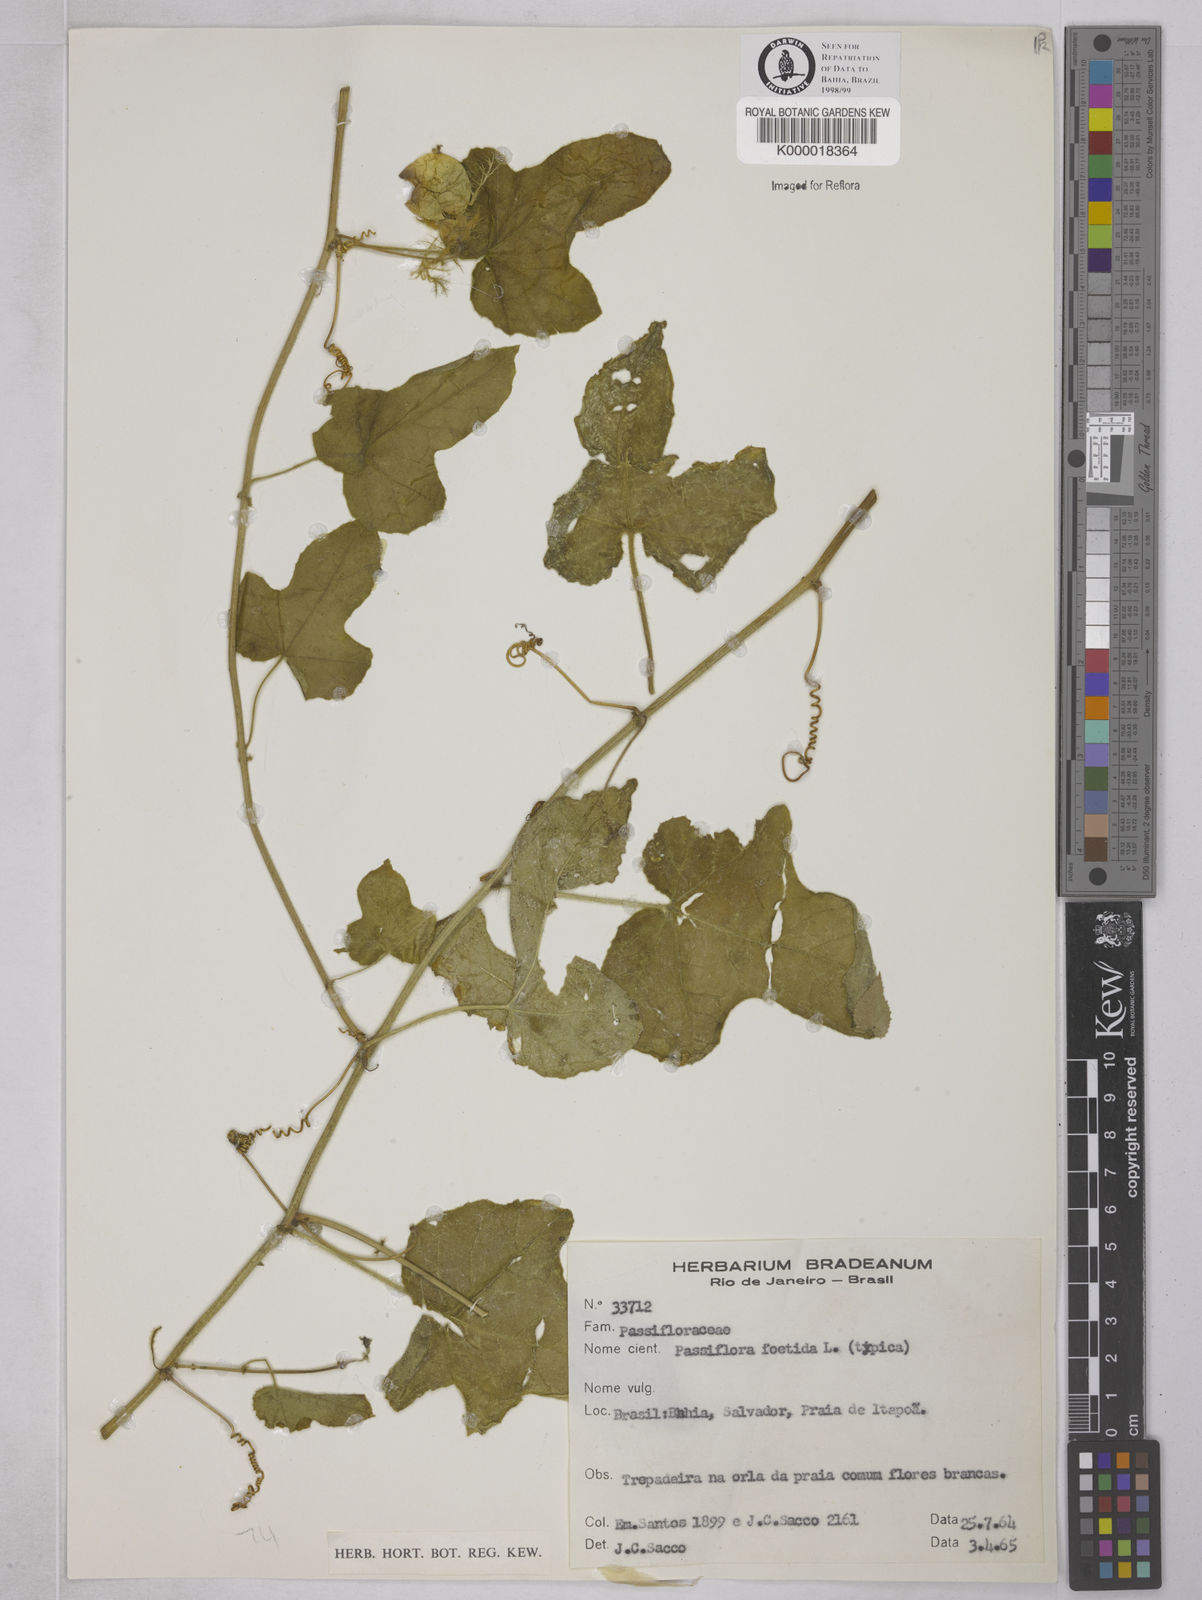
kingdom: Plantae
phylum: Tracheophyta
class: Magnoliopsida
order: Malpighiales
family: Passifloraceae
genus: Passiflora
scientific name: Passiflora foetida
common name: Fetid passionflower
